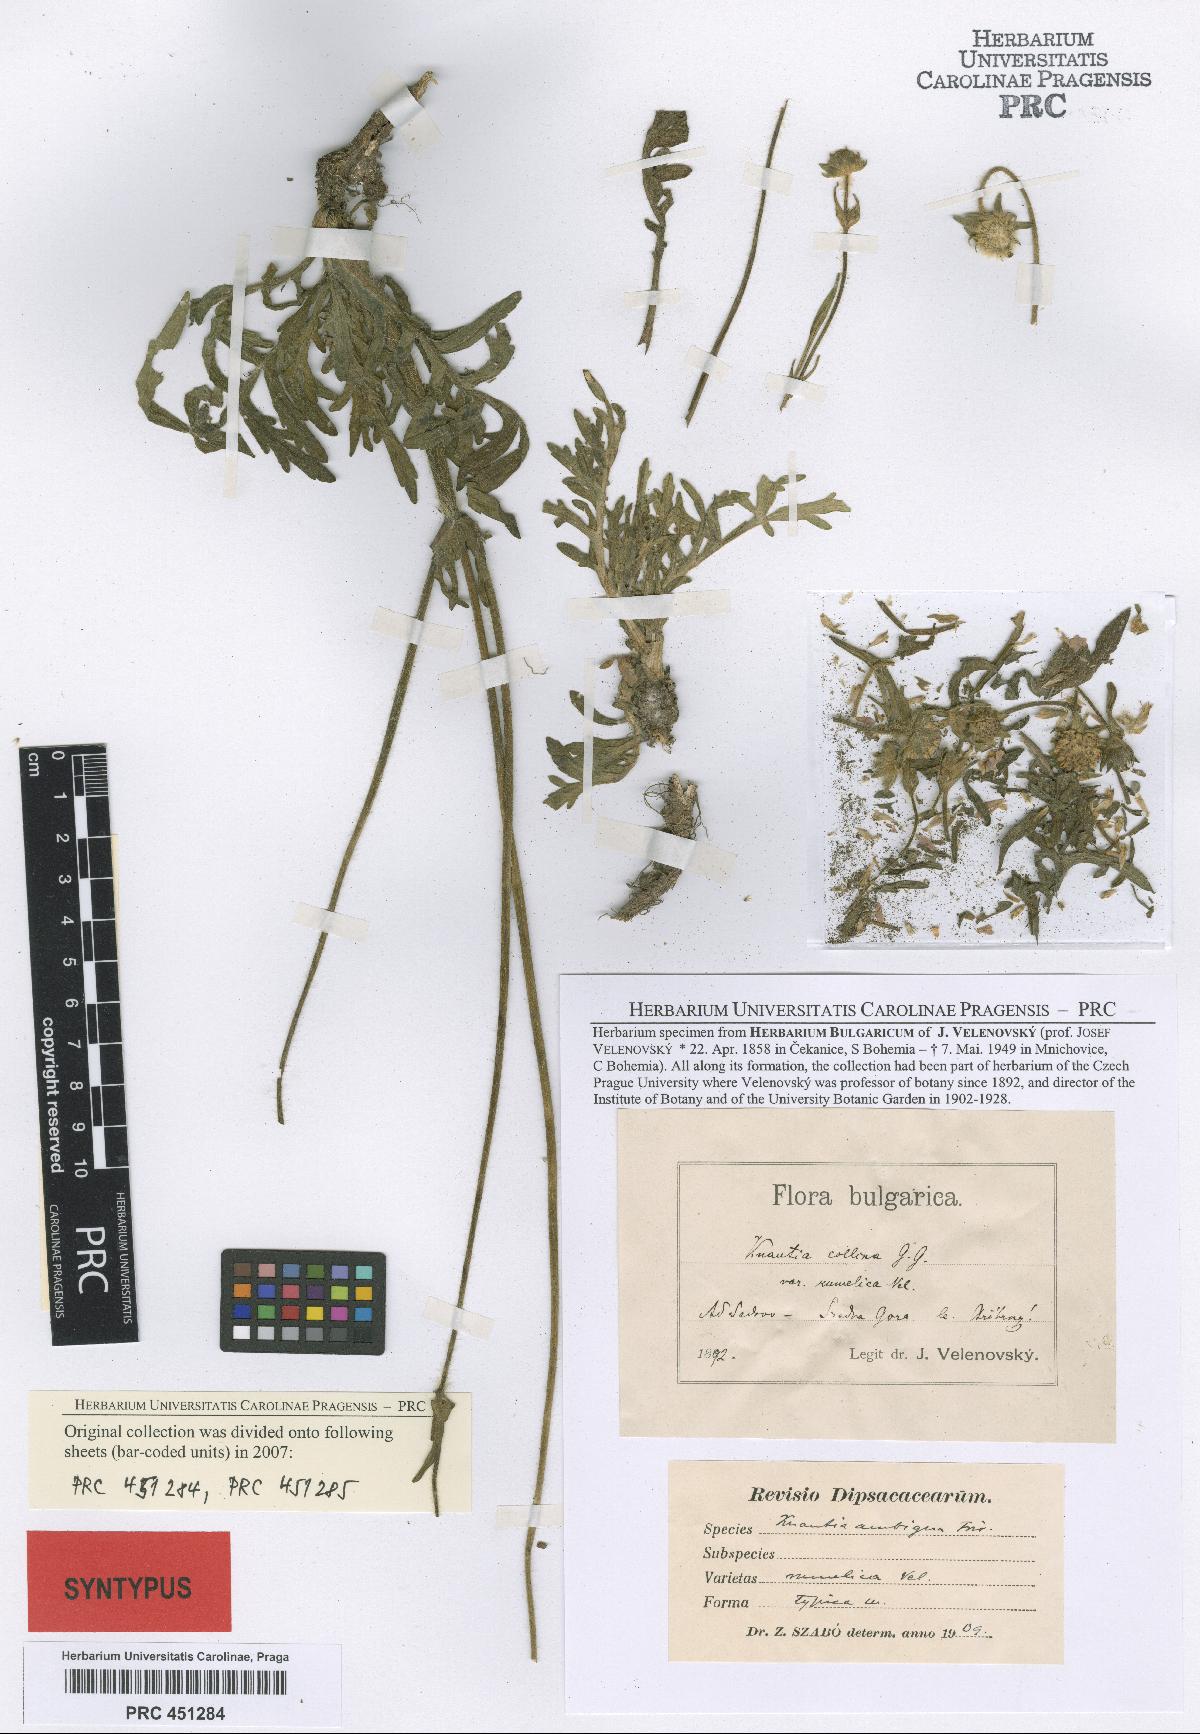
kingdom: Plantae
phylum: Tracheophyta
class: Magnoliopsida
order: Dipsacales
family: Caprifoliaceae
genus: Knautia
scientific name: Knautia collina
